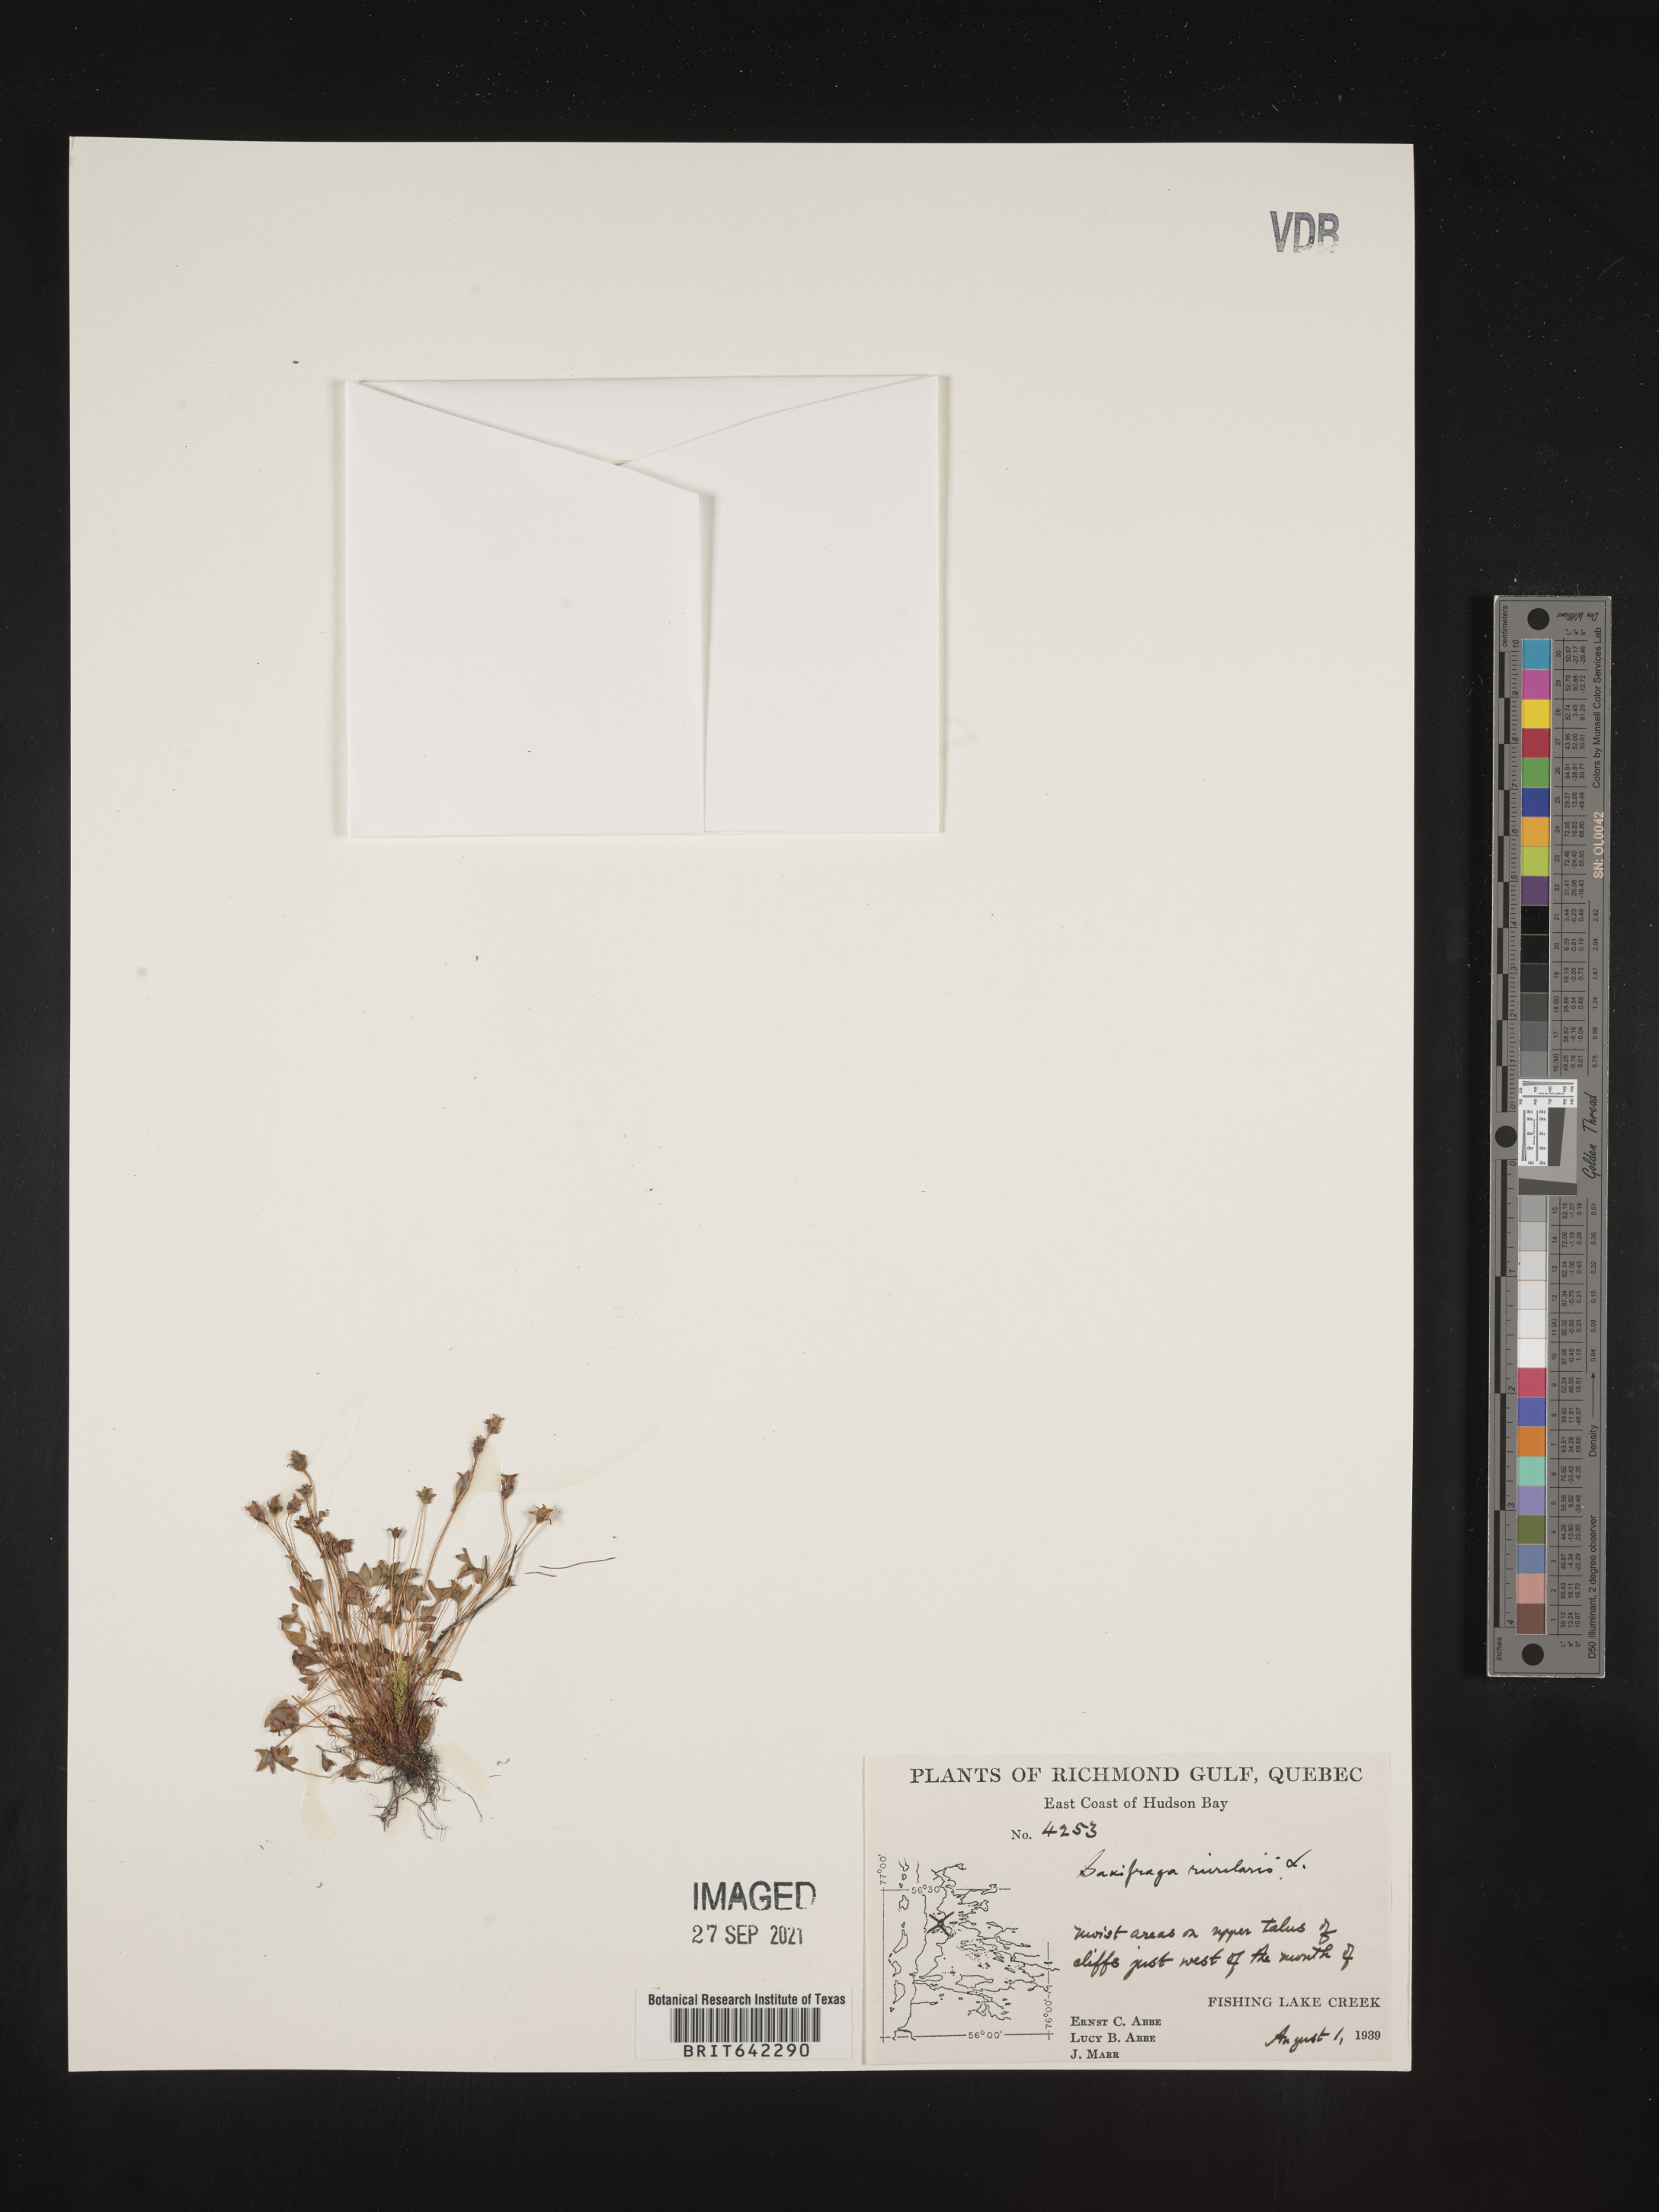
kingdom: Plantae
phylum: Tracheophyta
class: Magnoliopsida
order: Saxifragales
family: Saxifragaceae
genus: Saxifraga
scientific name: Saxifraga
